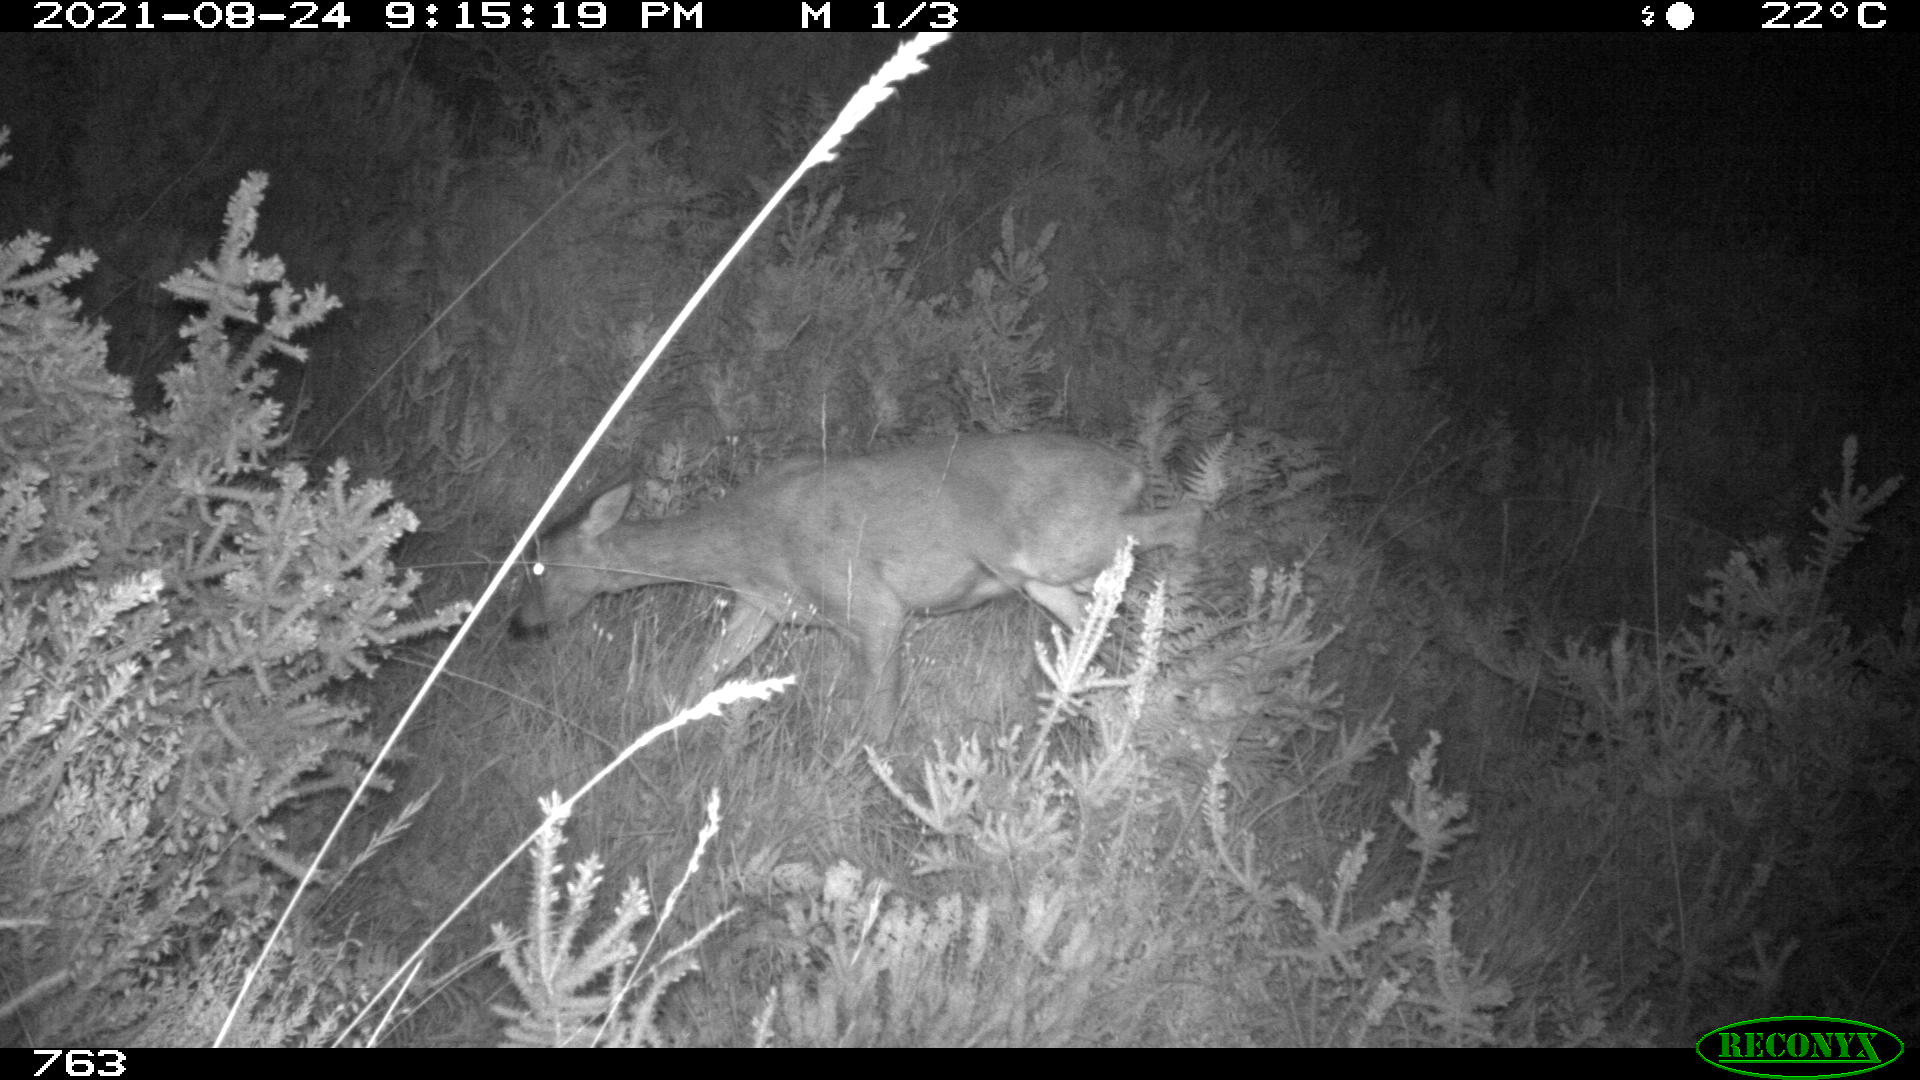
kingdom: Animalia
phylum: Chordata
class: Mammalia
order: Artiodactyla
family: Cervidae
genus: Capreolus
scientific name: Capreolus capreolus
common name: Western roe deer
